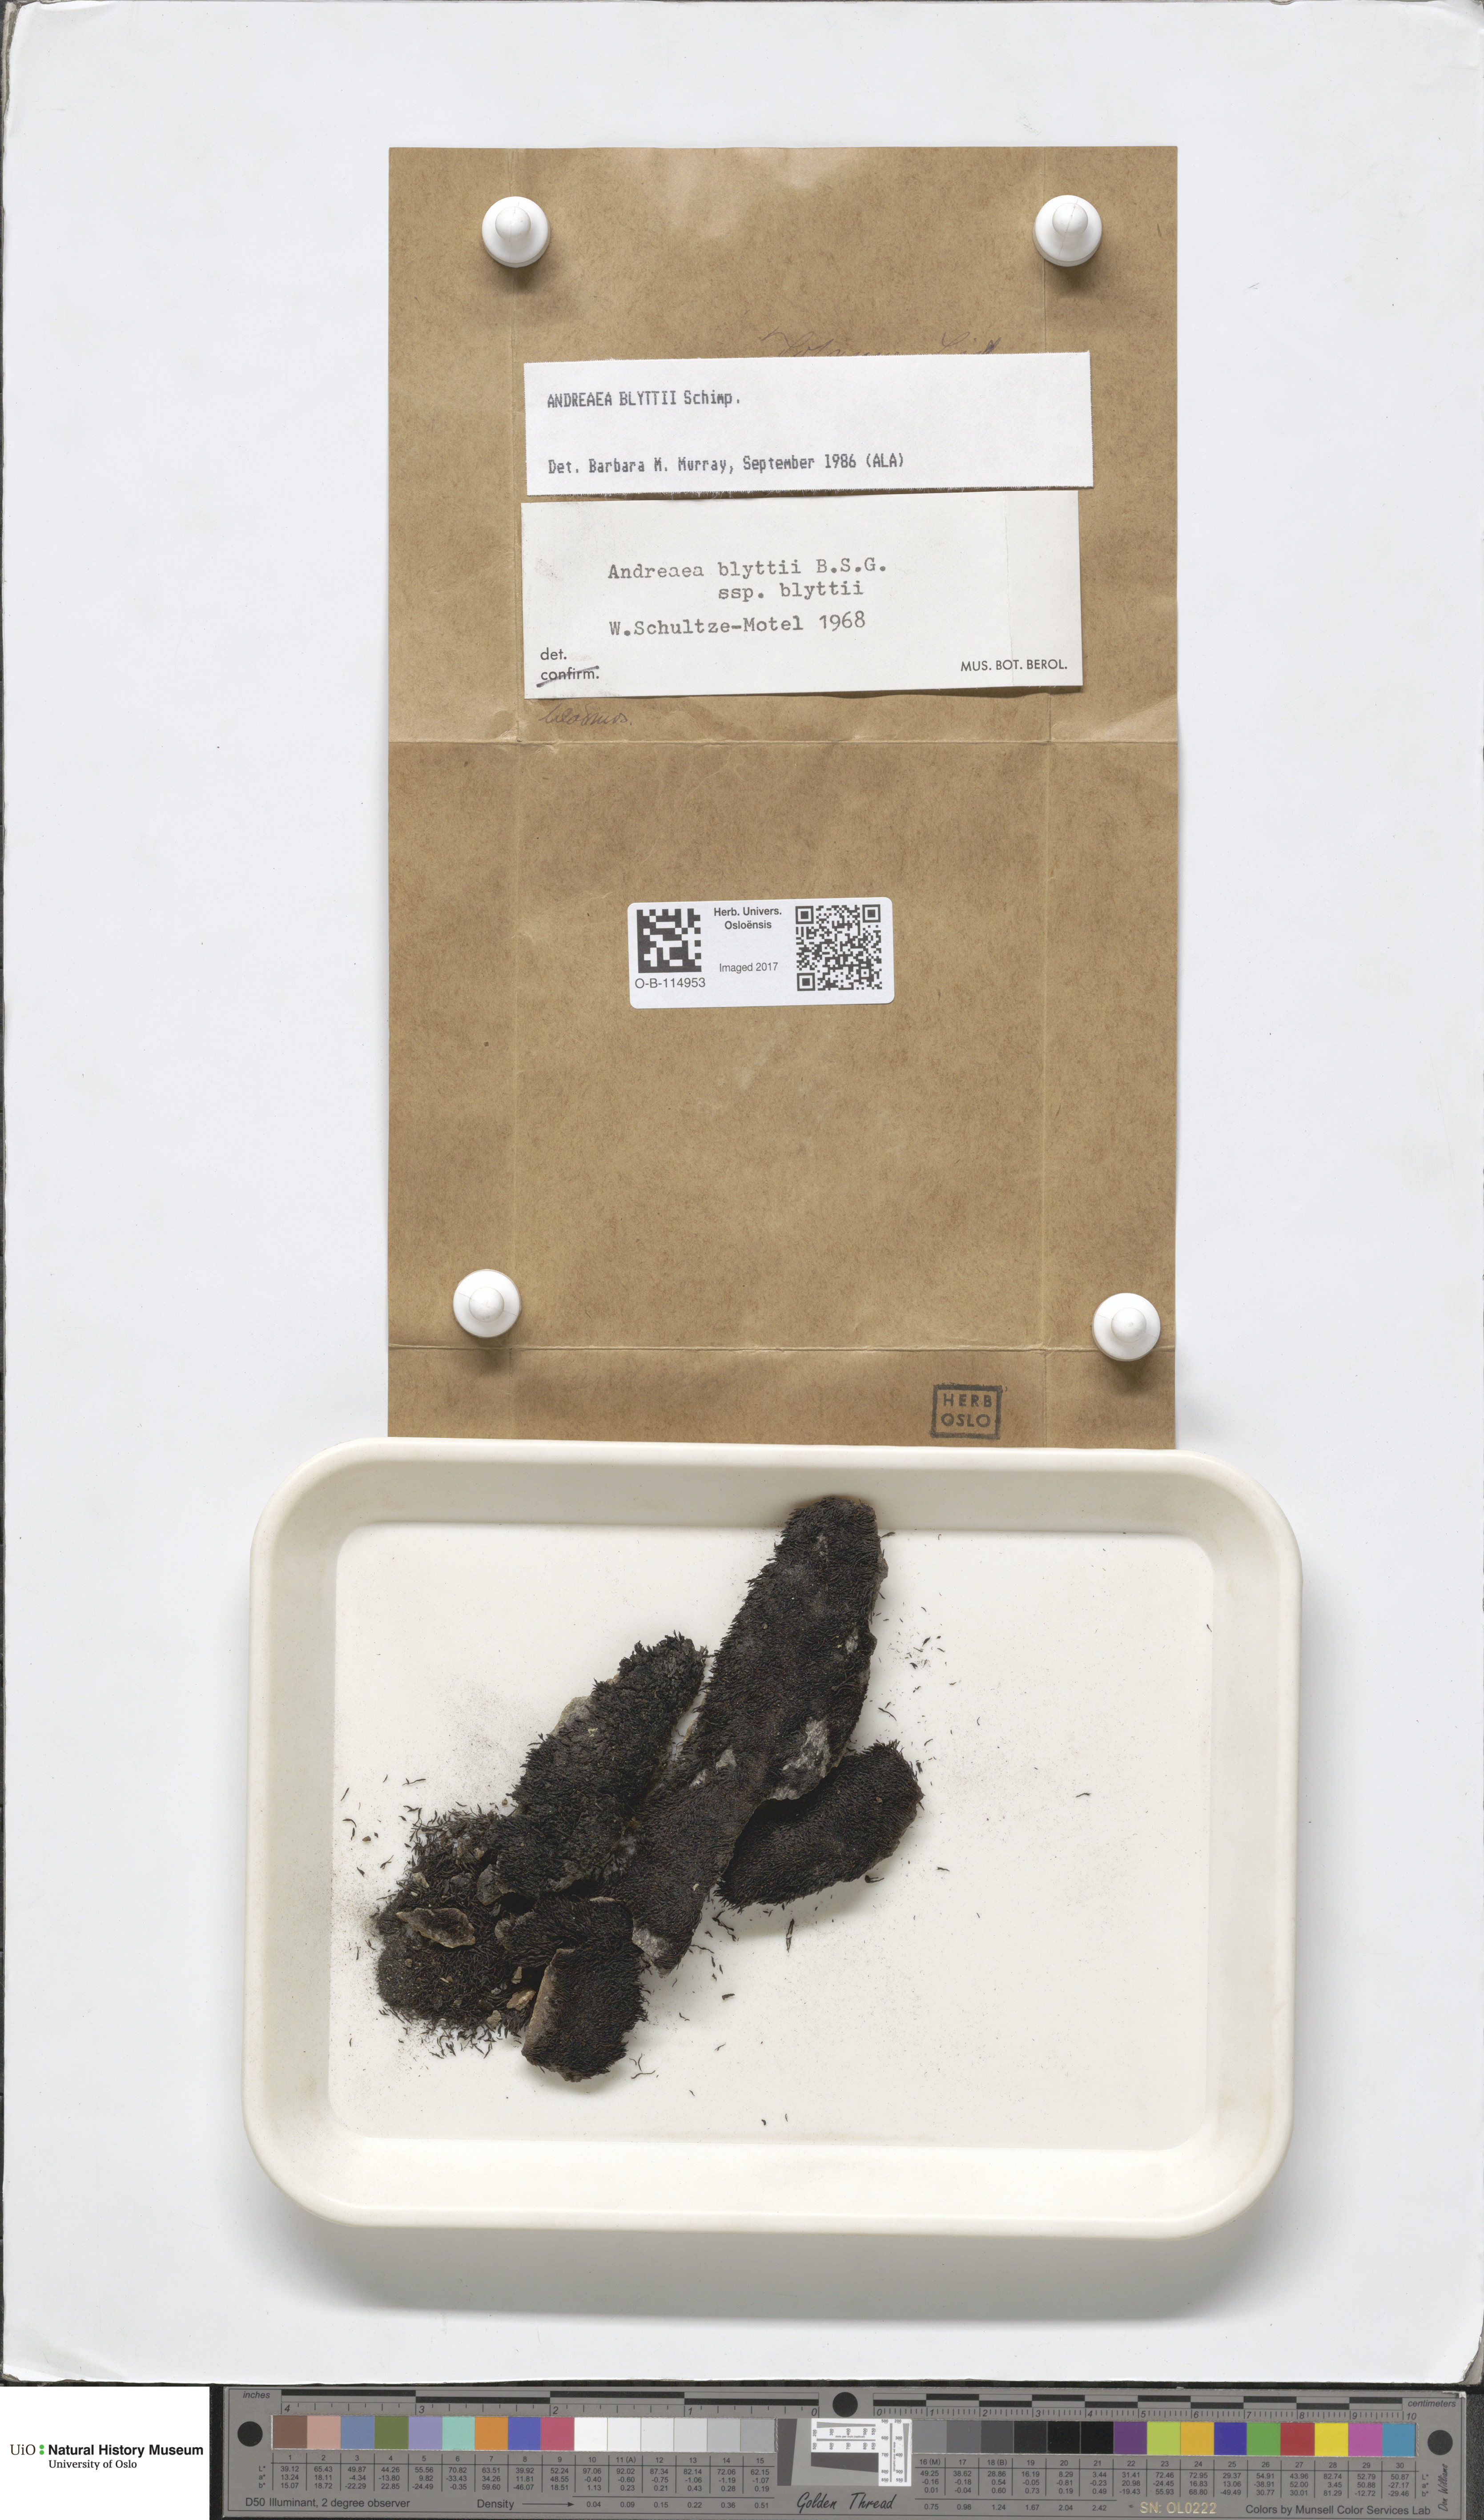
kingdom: Plantae
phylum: Bryophyta
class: Andreaeopsida
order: Andreaeales
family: Andreaeaceae
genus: Andreaea
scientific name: Andreaea hookeri
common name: Alpine rock-moss
